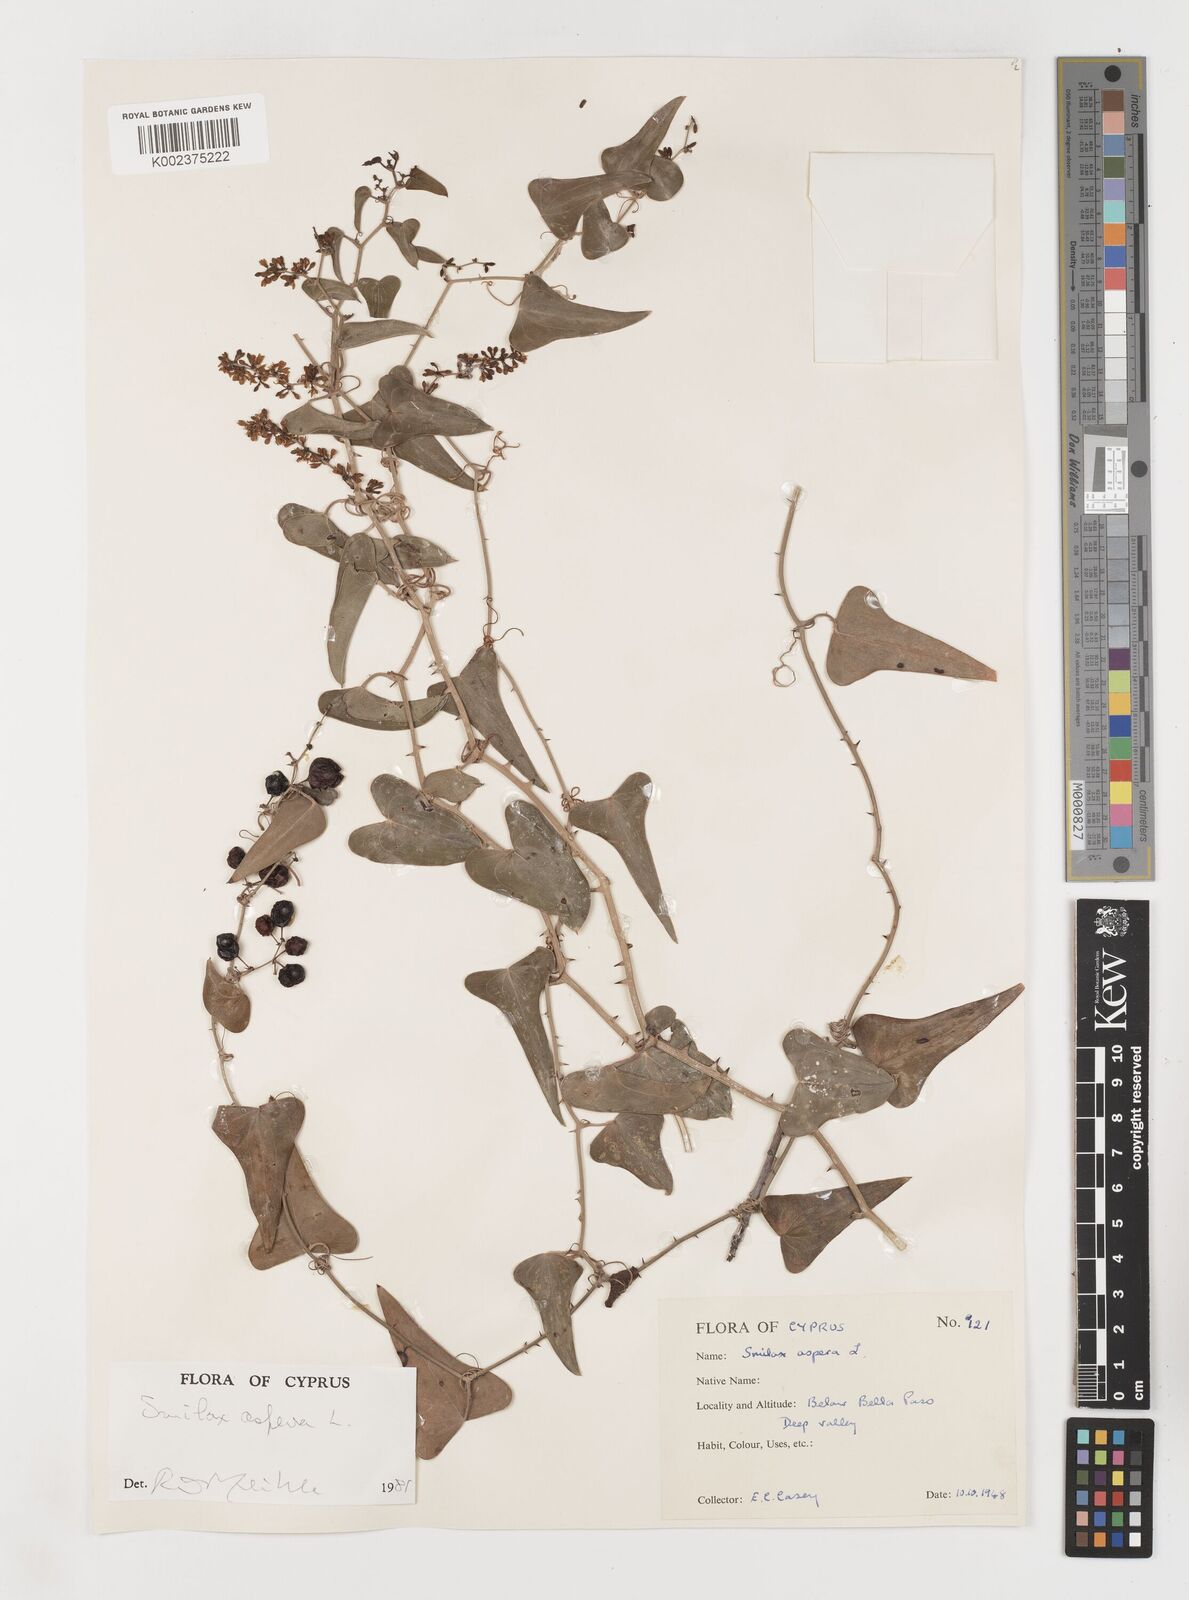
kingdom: Plantae
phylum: Tracheophyta
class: Liliopsida
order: Liliales
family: Smilacaceae
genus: Smilax
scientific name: Smilax aspera
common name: Common smilax
